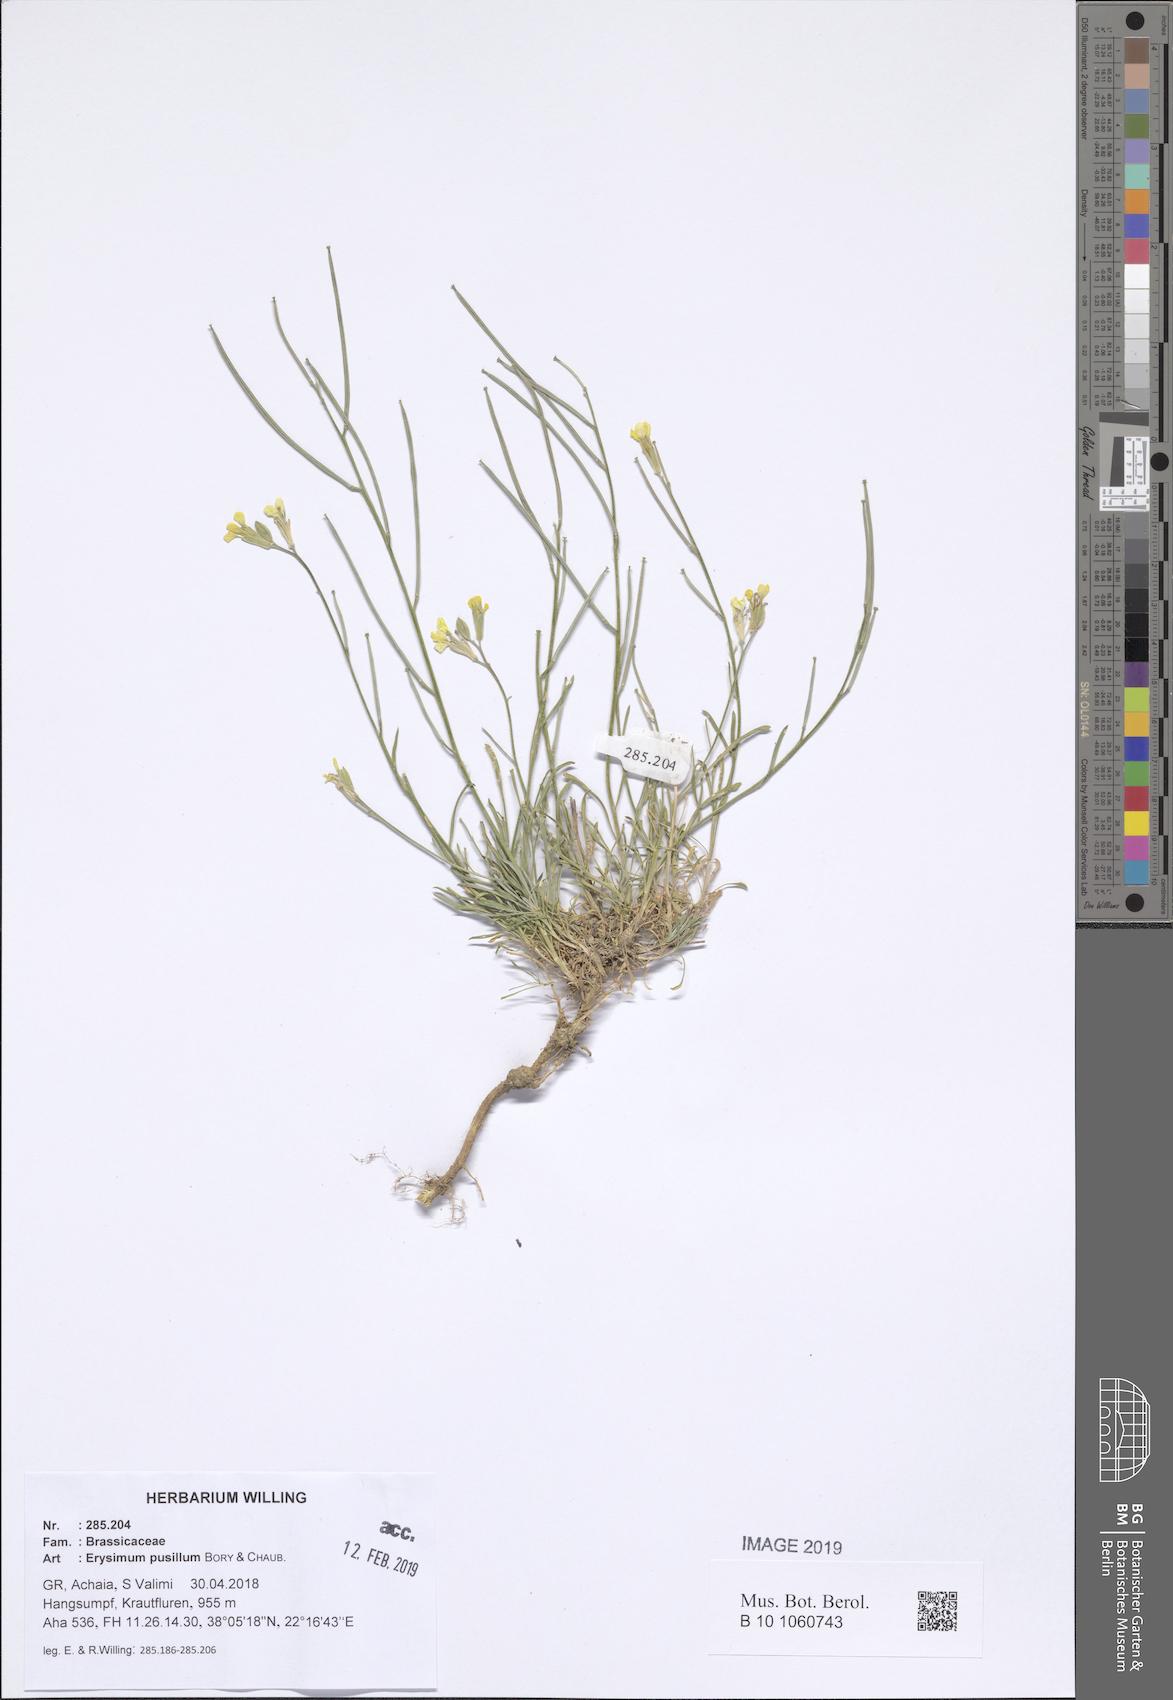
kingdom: Plantae
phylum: Tracheophyta
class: Magnoliopsida
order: Brassicales
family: Brassicaceae
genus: Erysimum
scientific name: Erysimum pusillum
